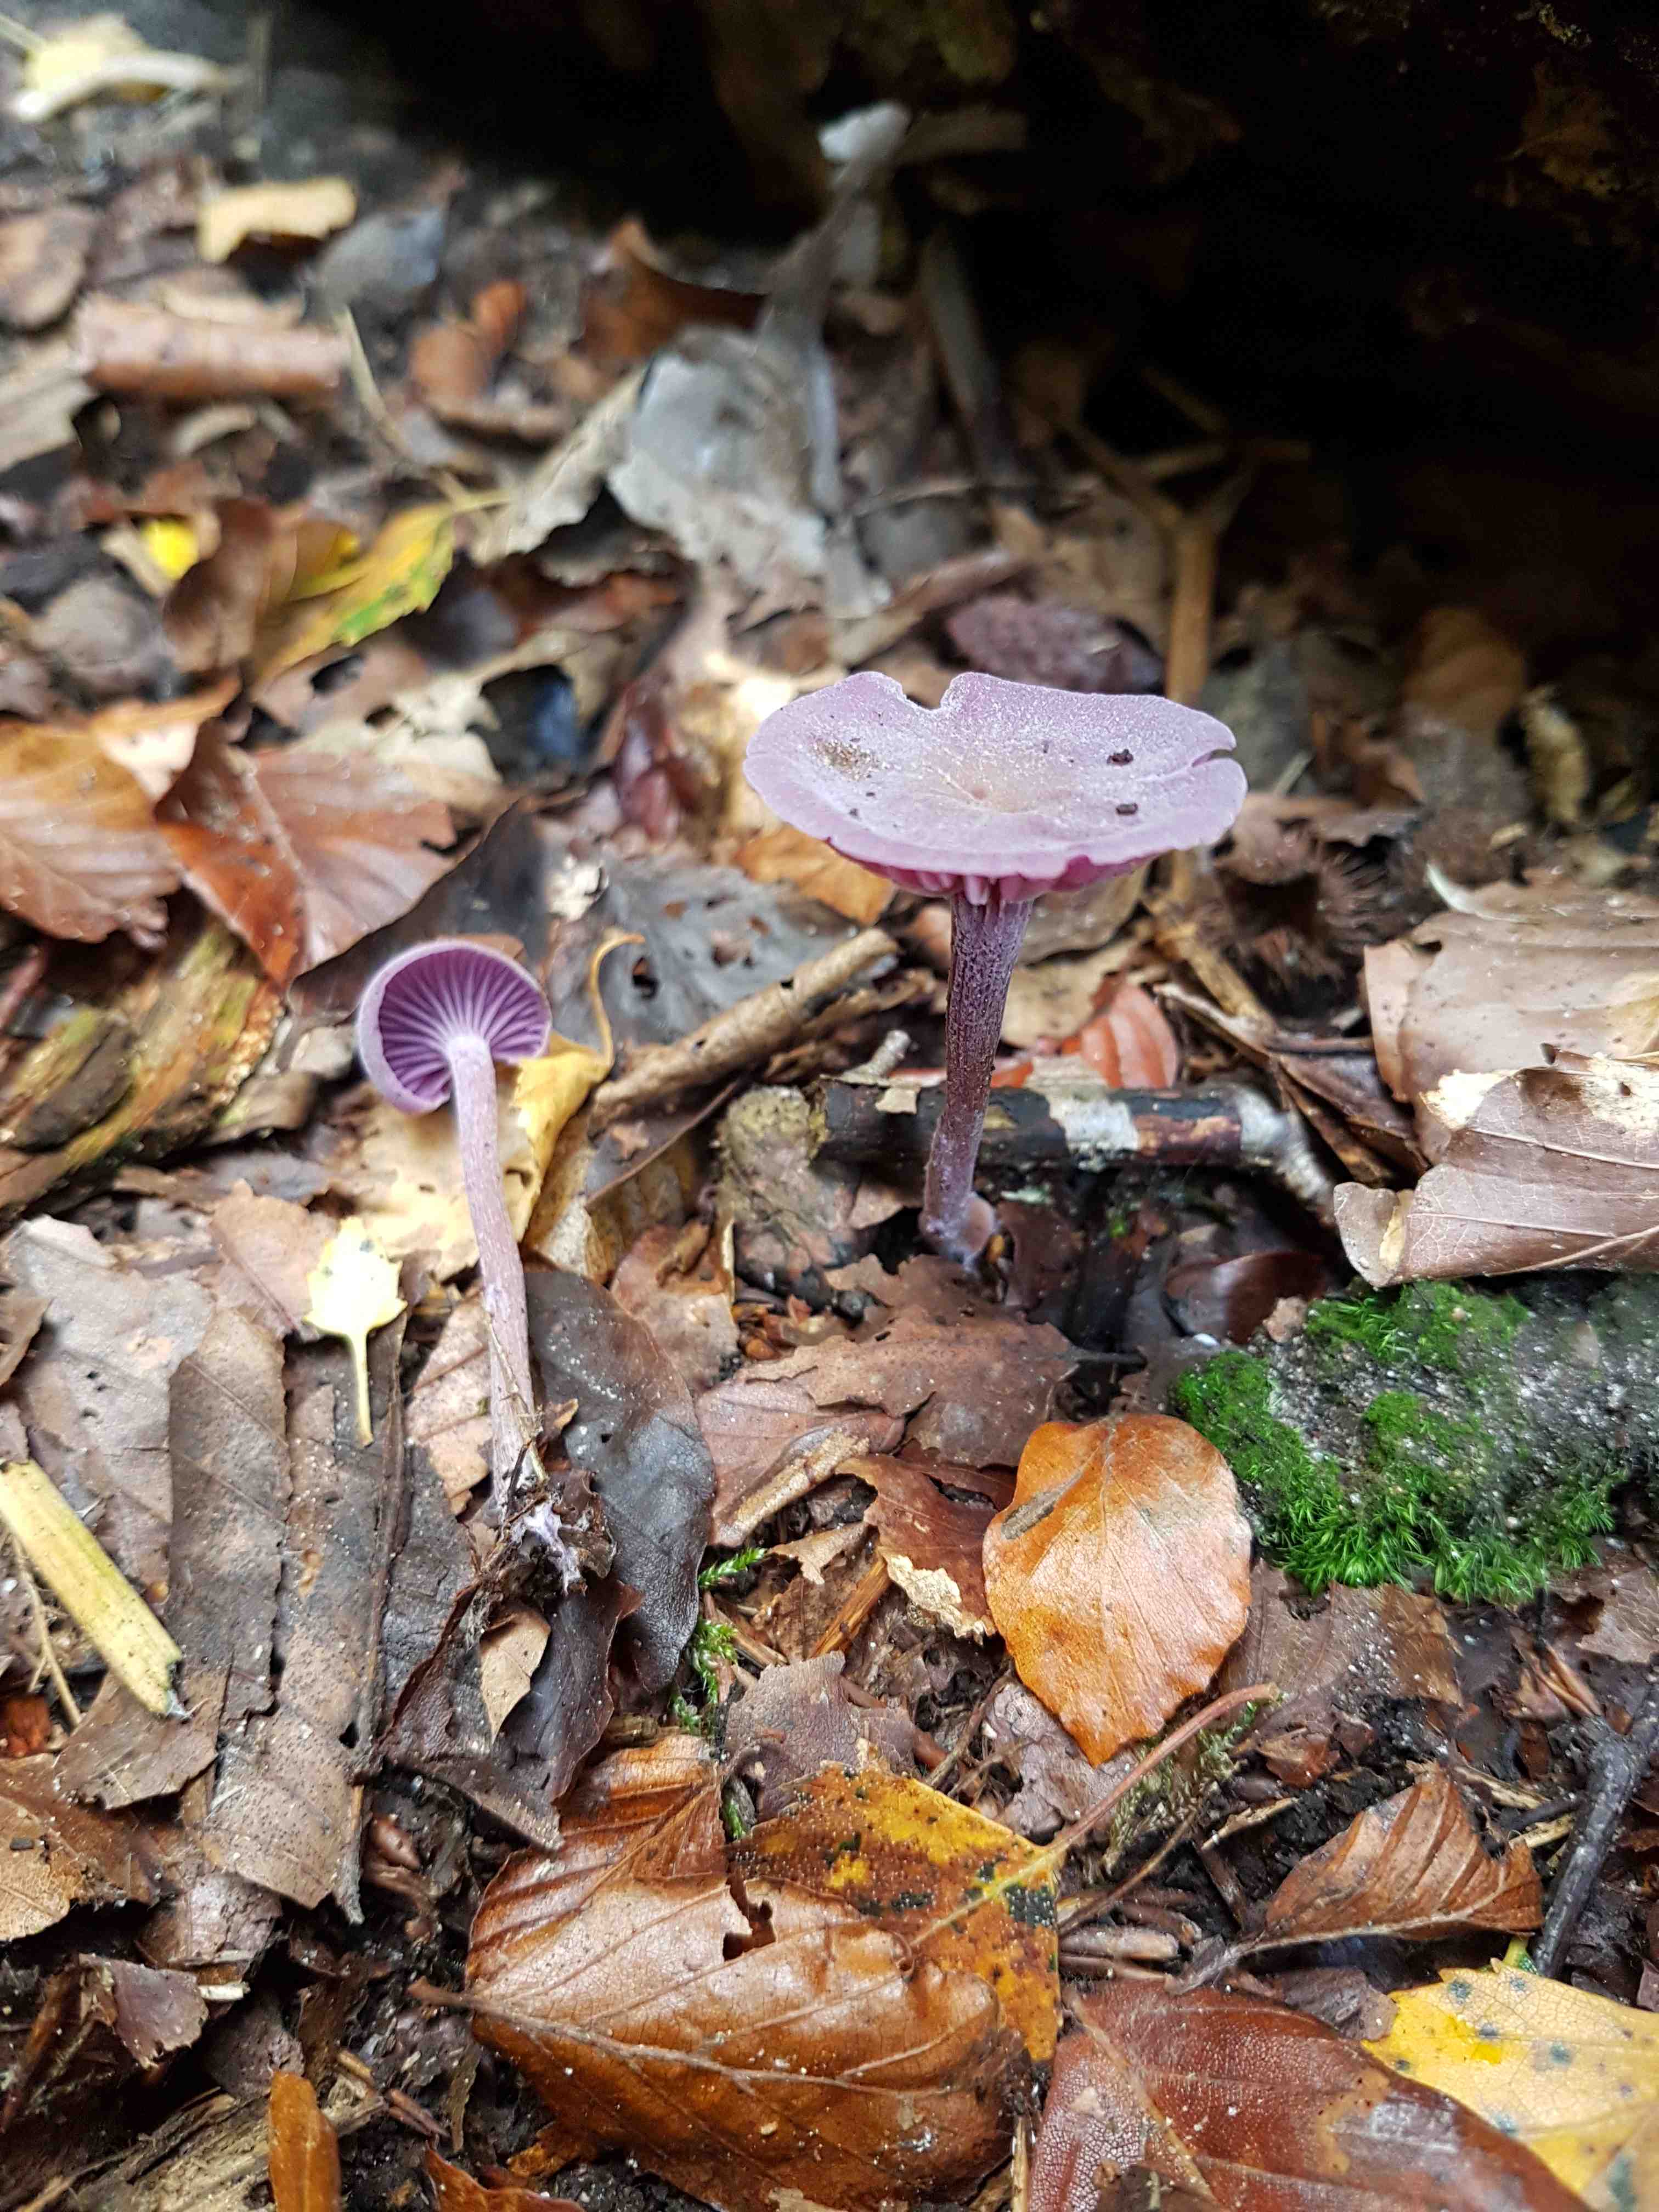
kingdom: Fungi
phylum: Basidiomycota
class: Agaricomycetes
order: Agaricales
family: Hydnangiaceae
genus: Laccaria
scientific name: Laccaria amethystina
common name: violet ametysthat
